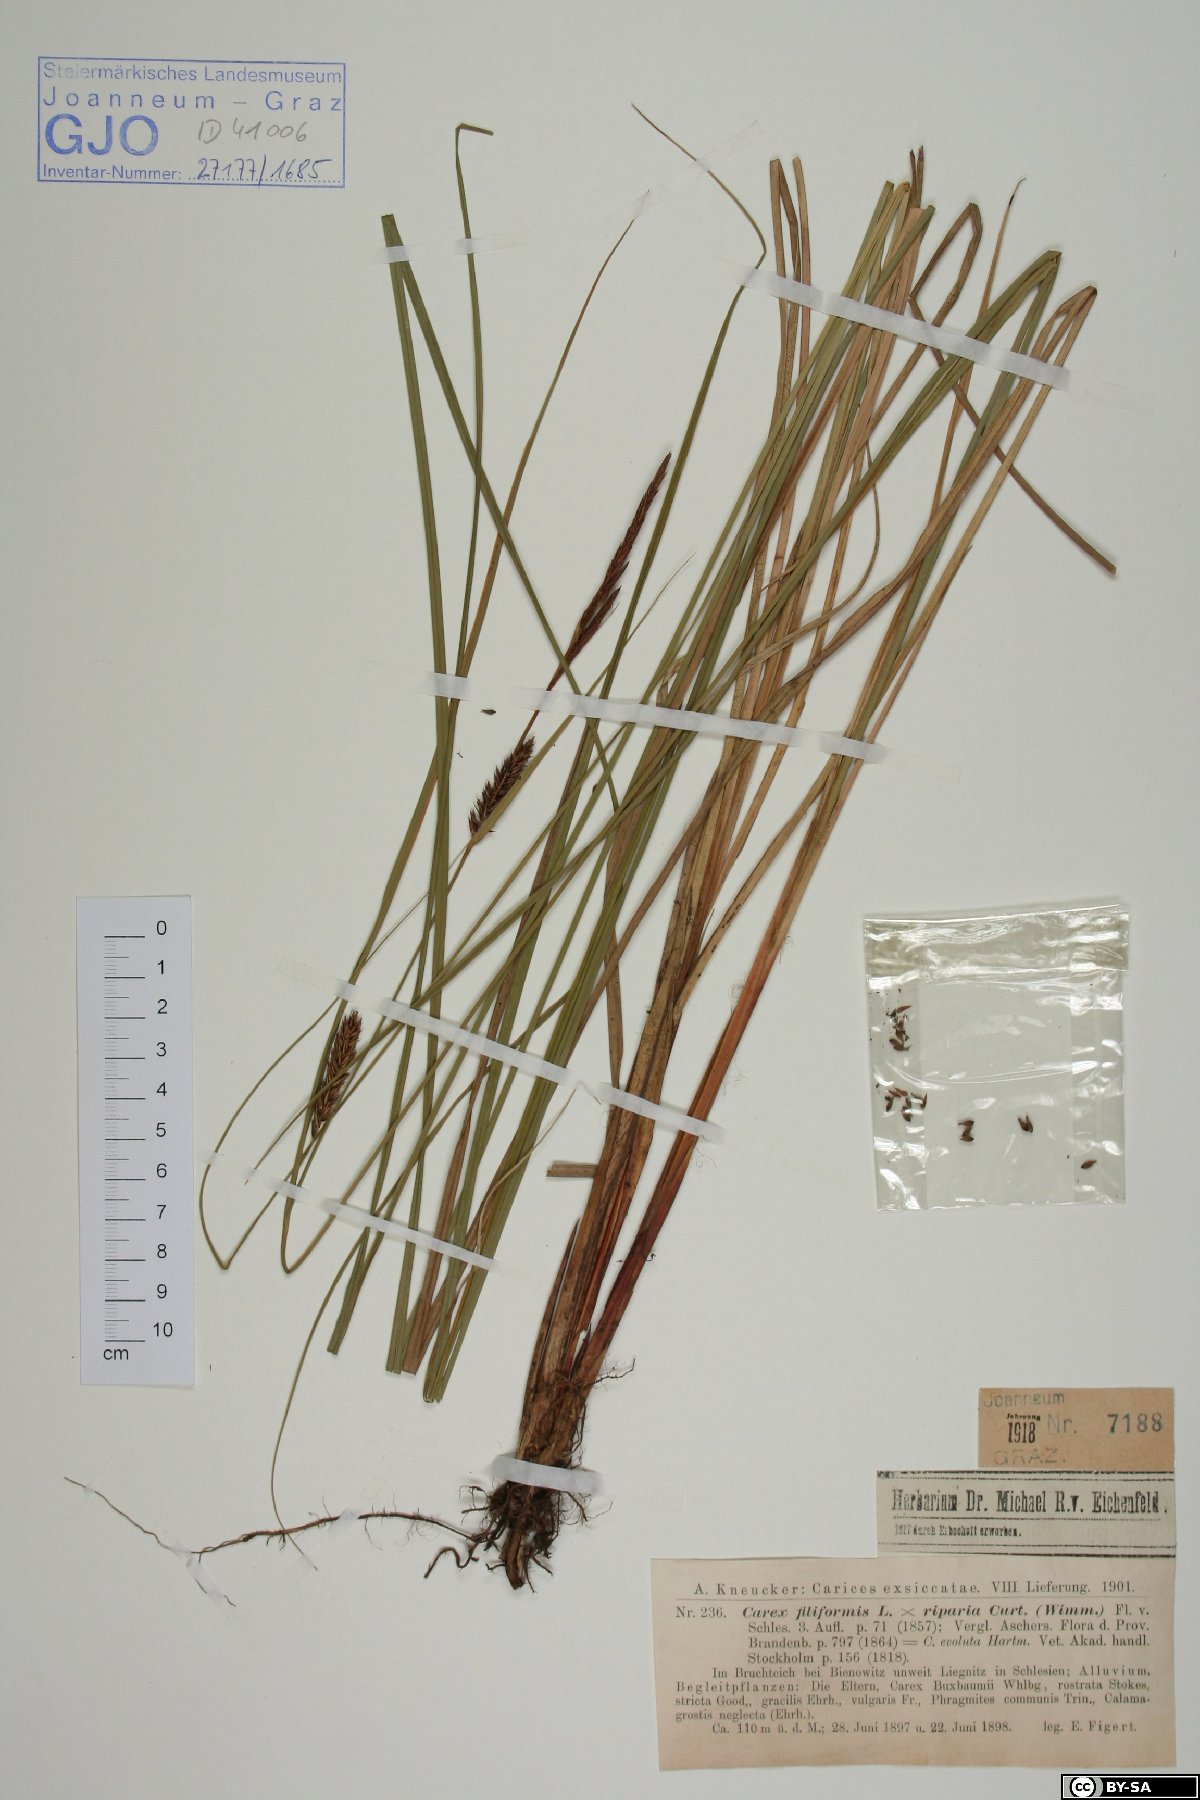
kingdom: Plantae
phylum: Tracheophyta
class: Liliopsida
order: Poales
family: Cyperaceae
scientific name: Cyperaceae
